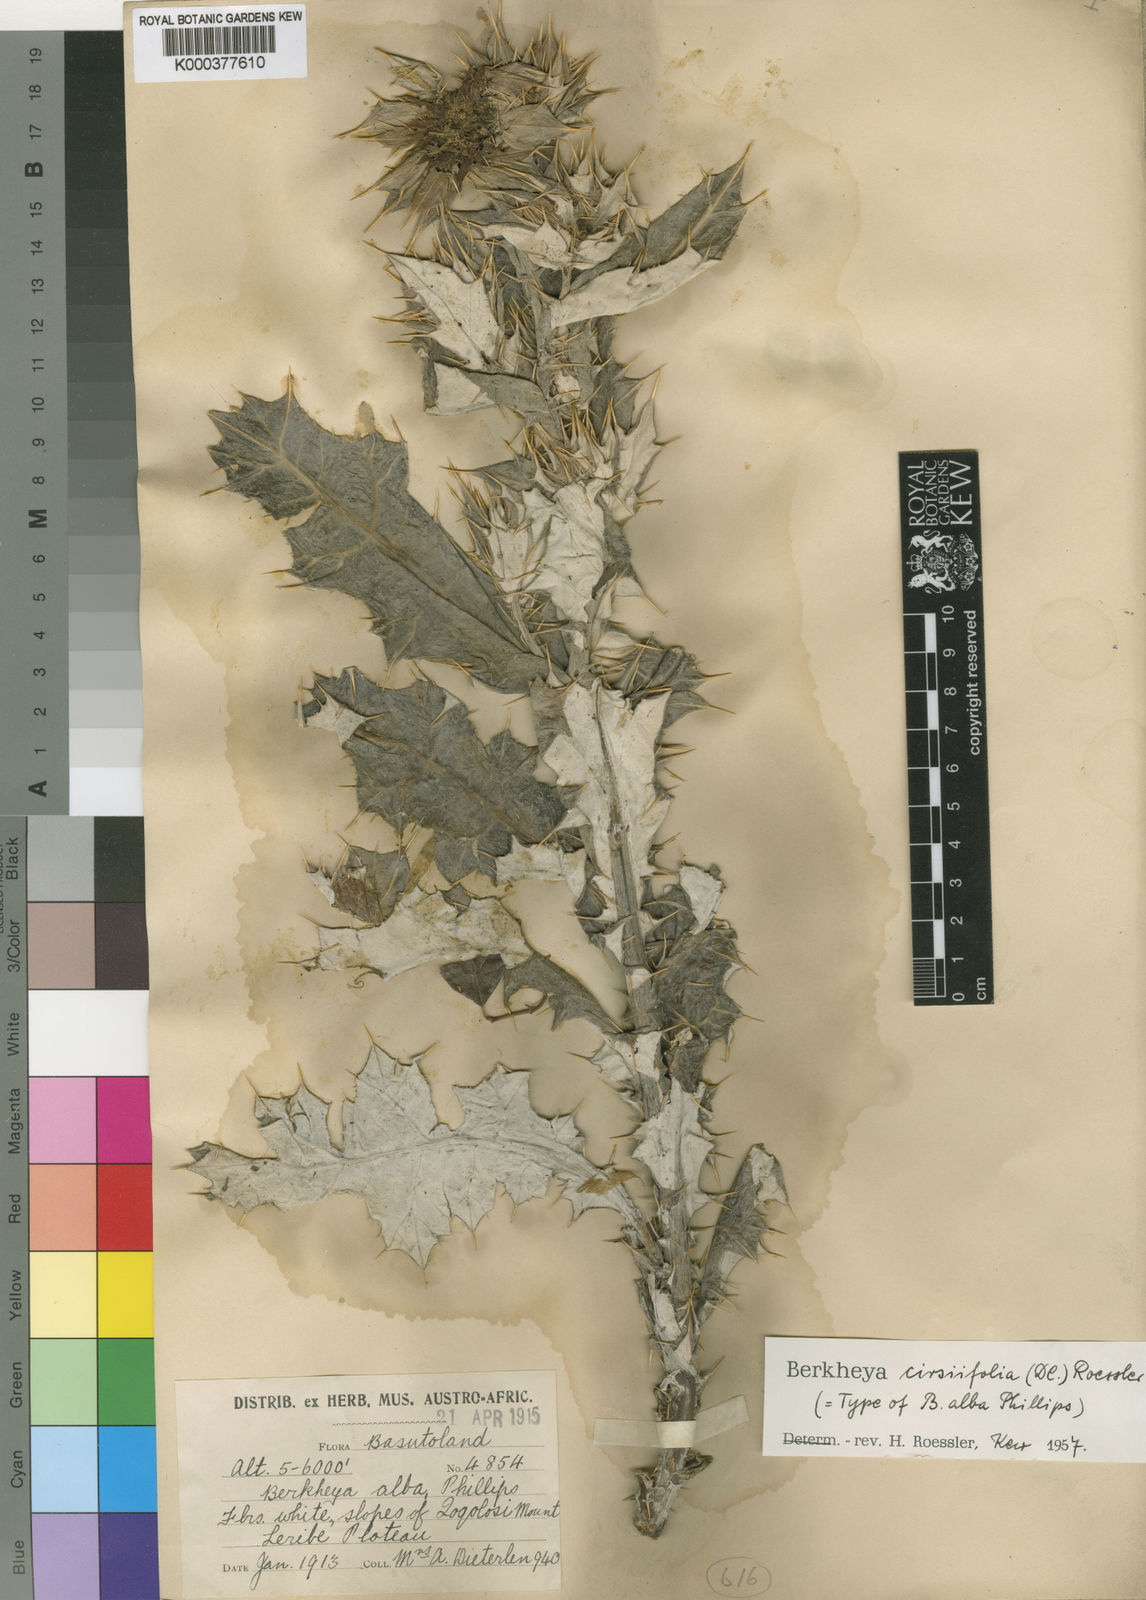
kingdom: Plantae
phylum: Tracheophyta
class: Magnoliopsida
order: Asterales
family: Asteraceae
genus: Berkheya
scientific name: Berkheya cirsiifolia
